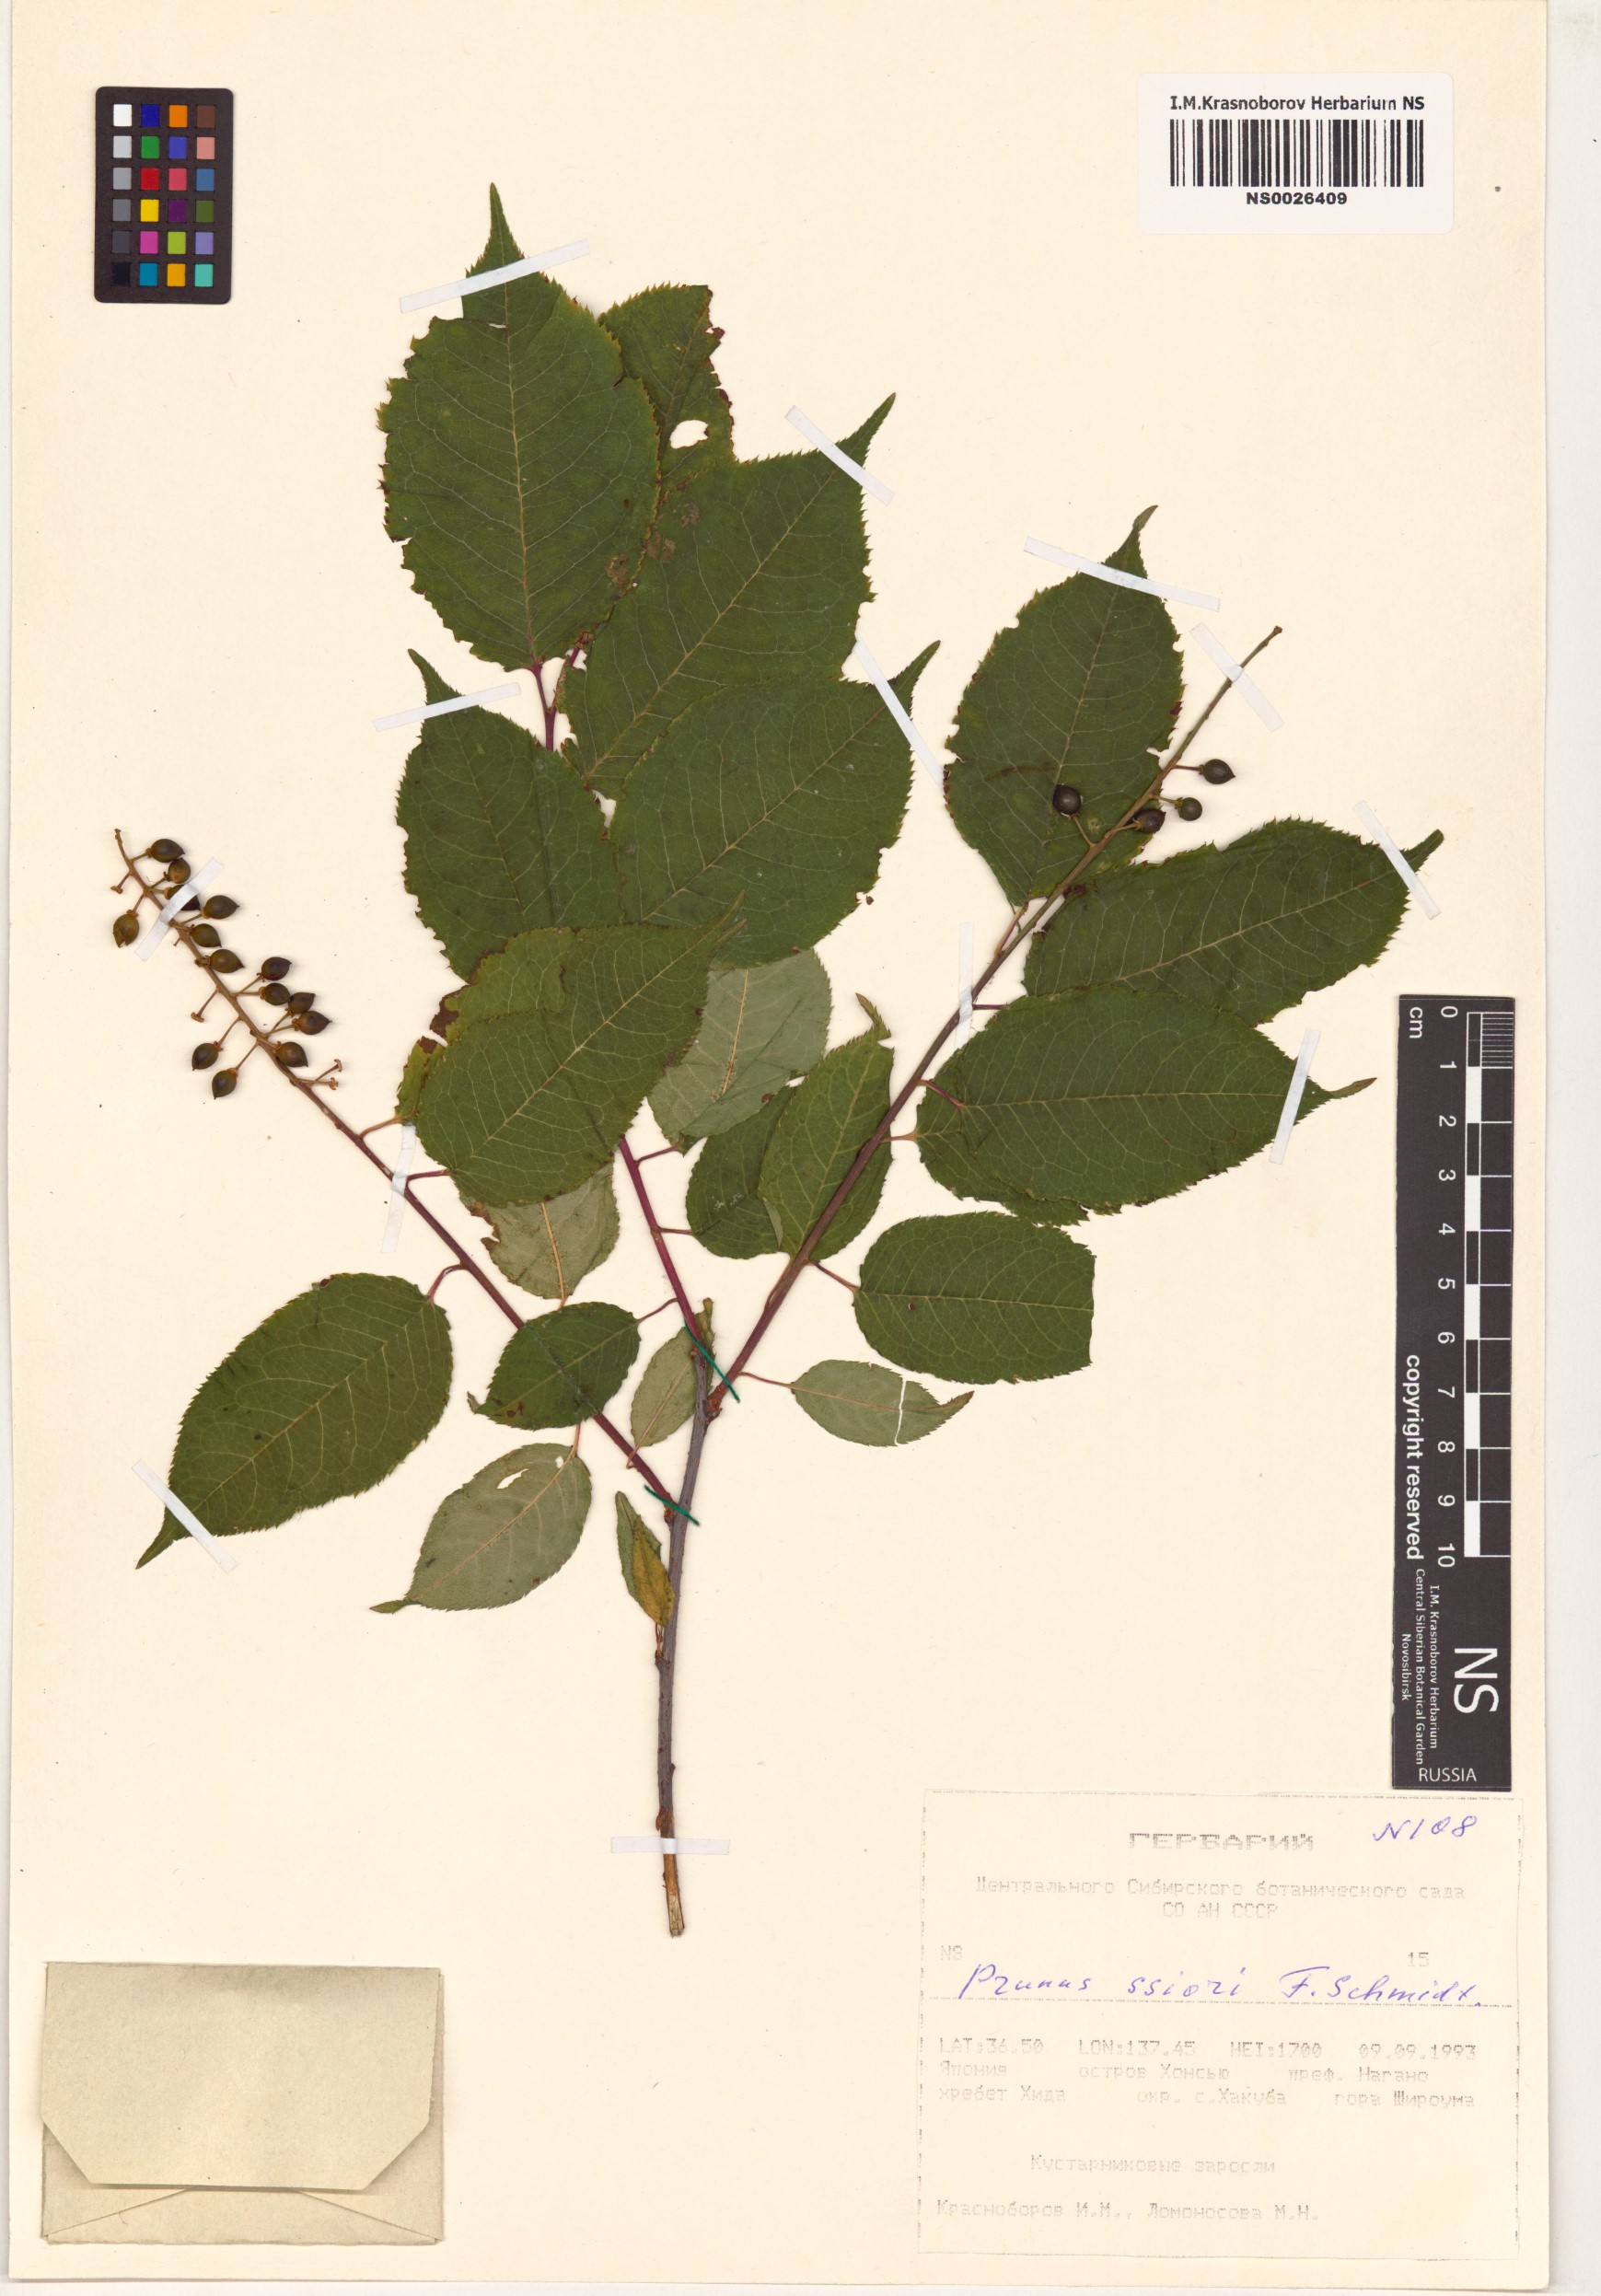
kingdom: Plantae
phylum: Tracheophyta
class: Magnoliopsida
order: Rosales
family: Rosaceae
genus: Prunus
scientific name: Prunus ssiori
